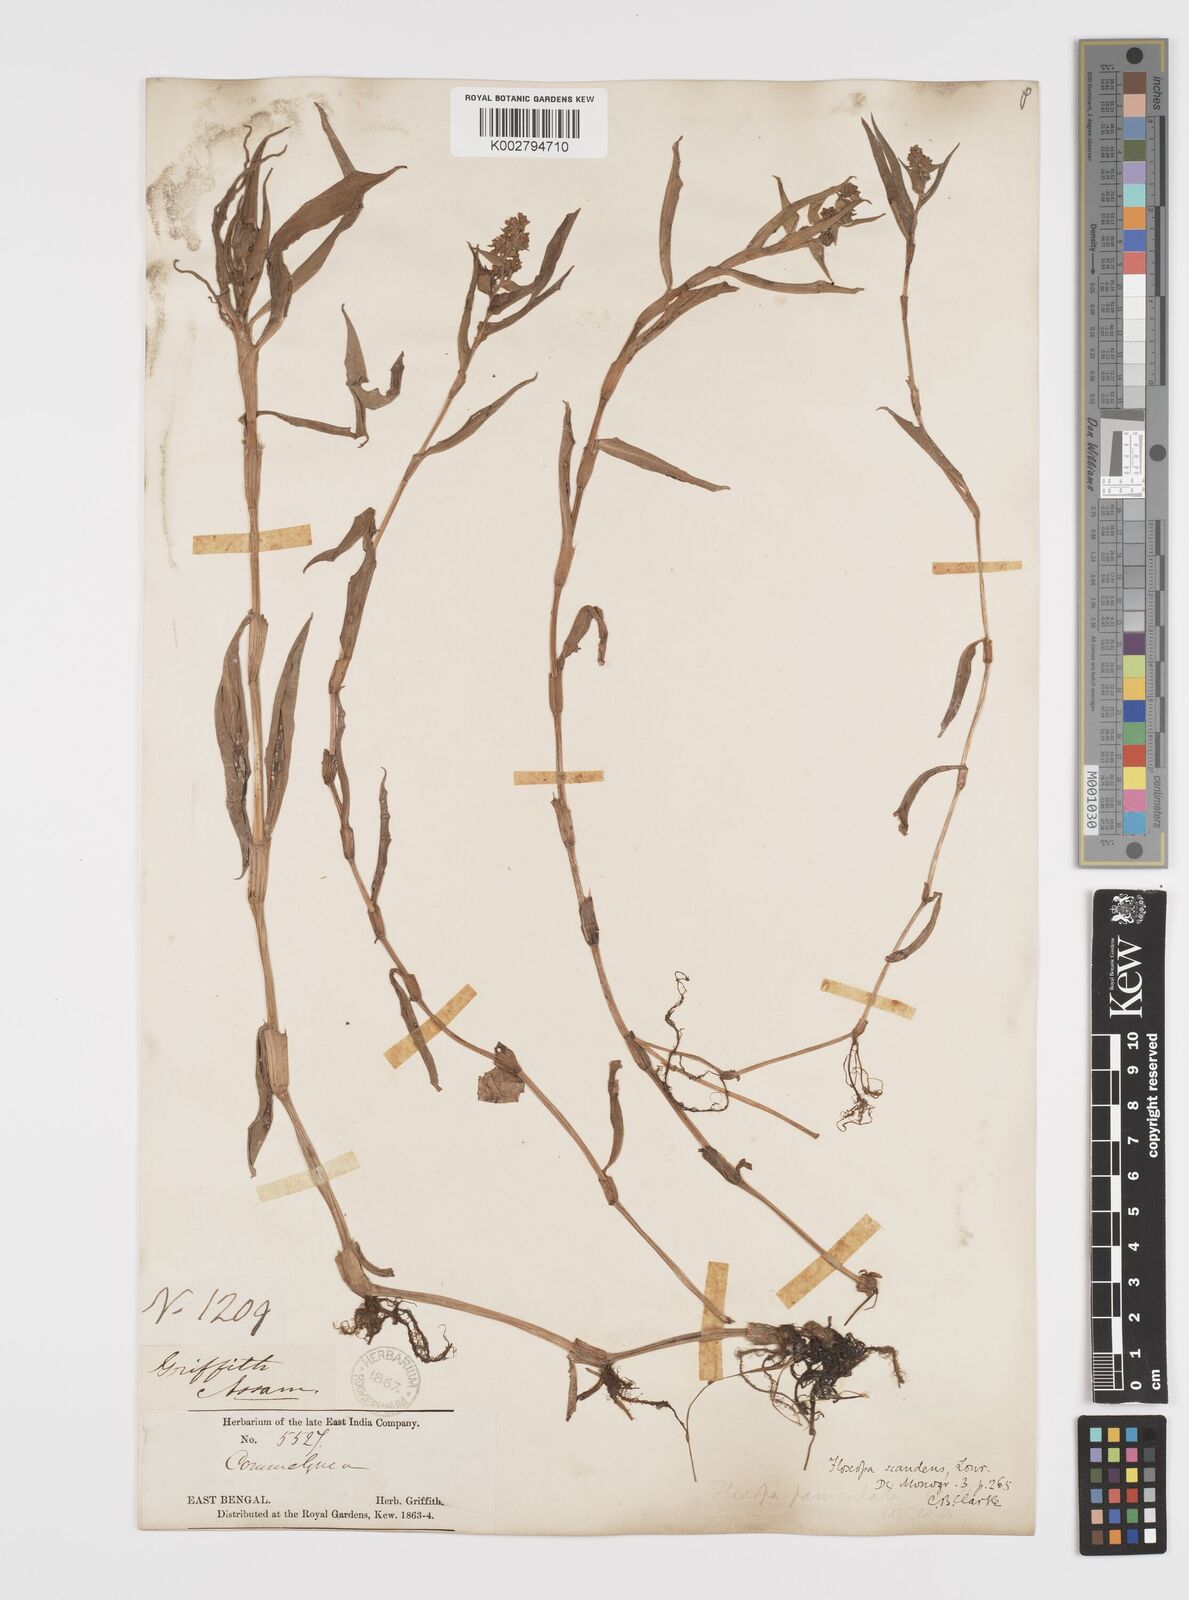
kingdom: Plantae
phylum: Tracheophyta
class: Liliopsida
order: Commelinales
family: Commelinaceae
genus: Floscopa
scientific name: Floscopa scandens
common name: Climbing flower cup
